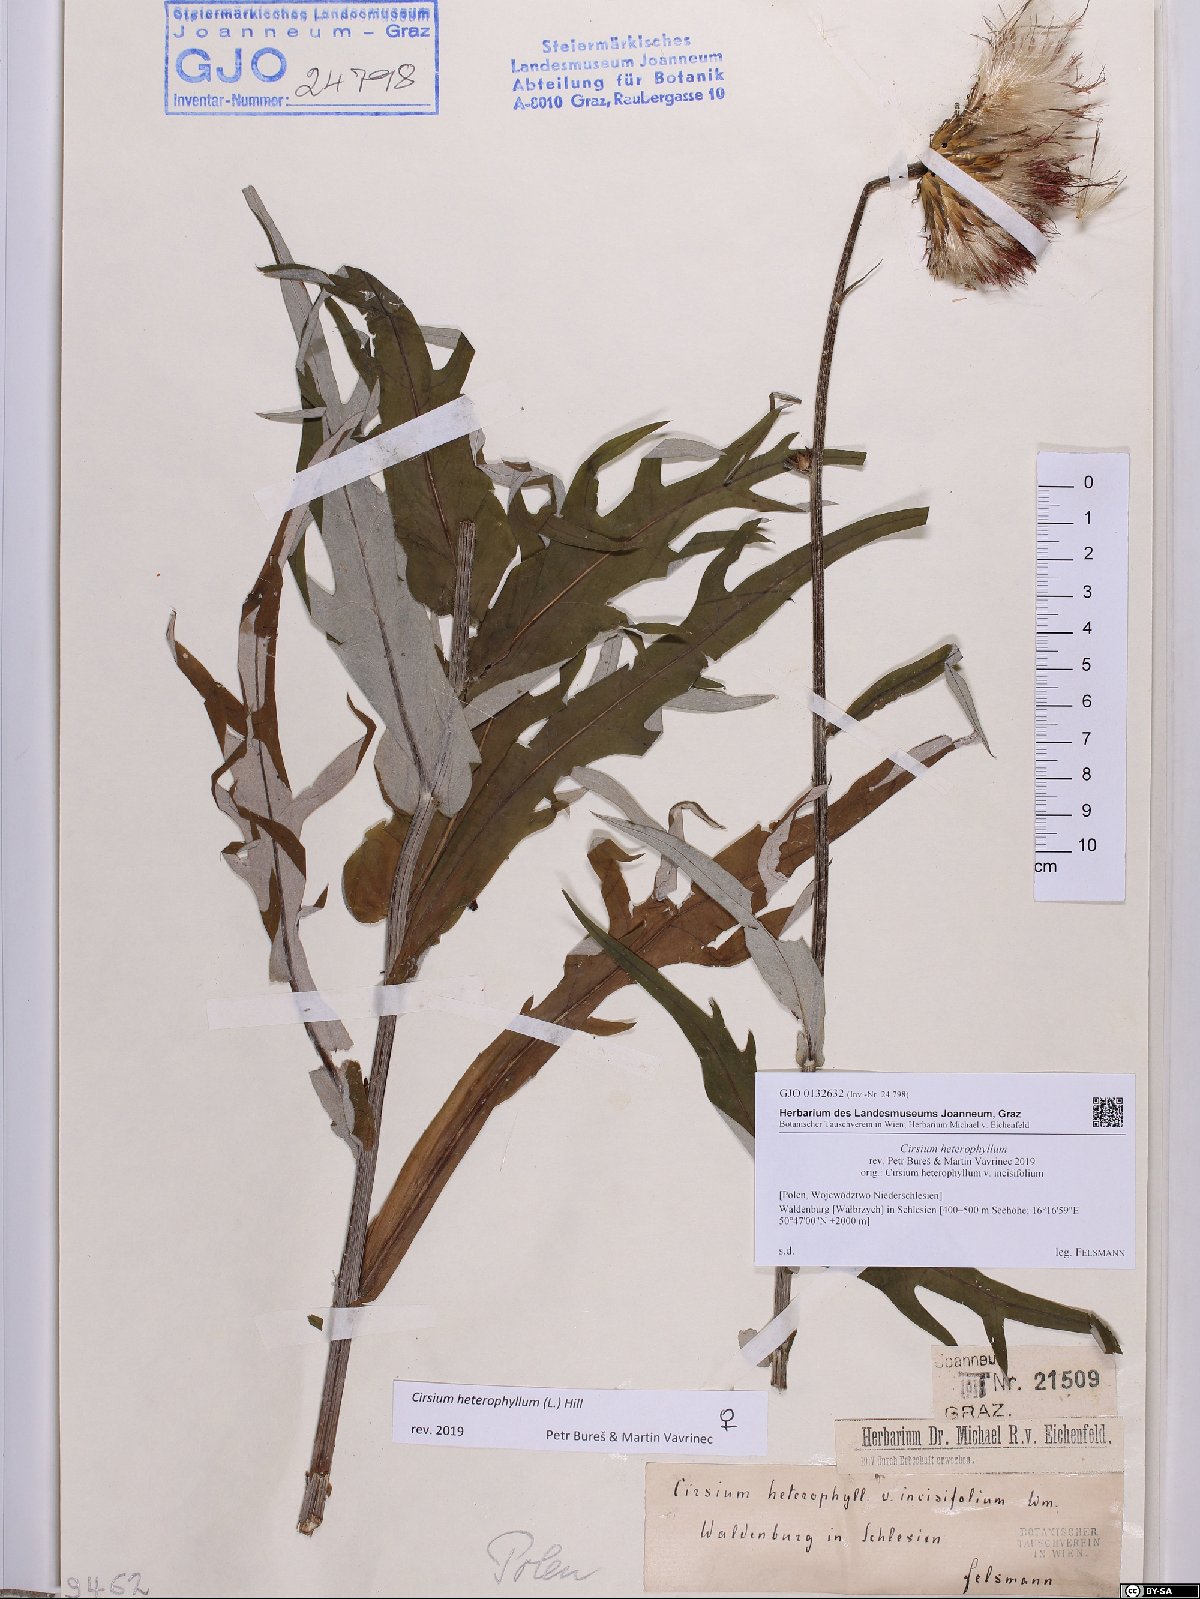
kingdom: Plantae
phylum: Tracheophyta
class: Magnoliopsida
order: Asterales
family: Asteraceae
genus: Cirsium
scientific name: Cirsium heterophyllum
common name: Melancholy thistle
